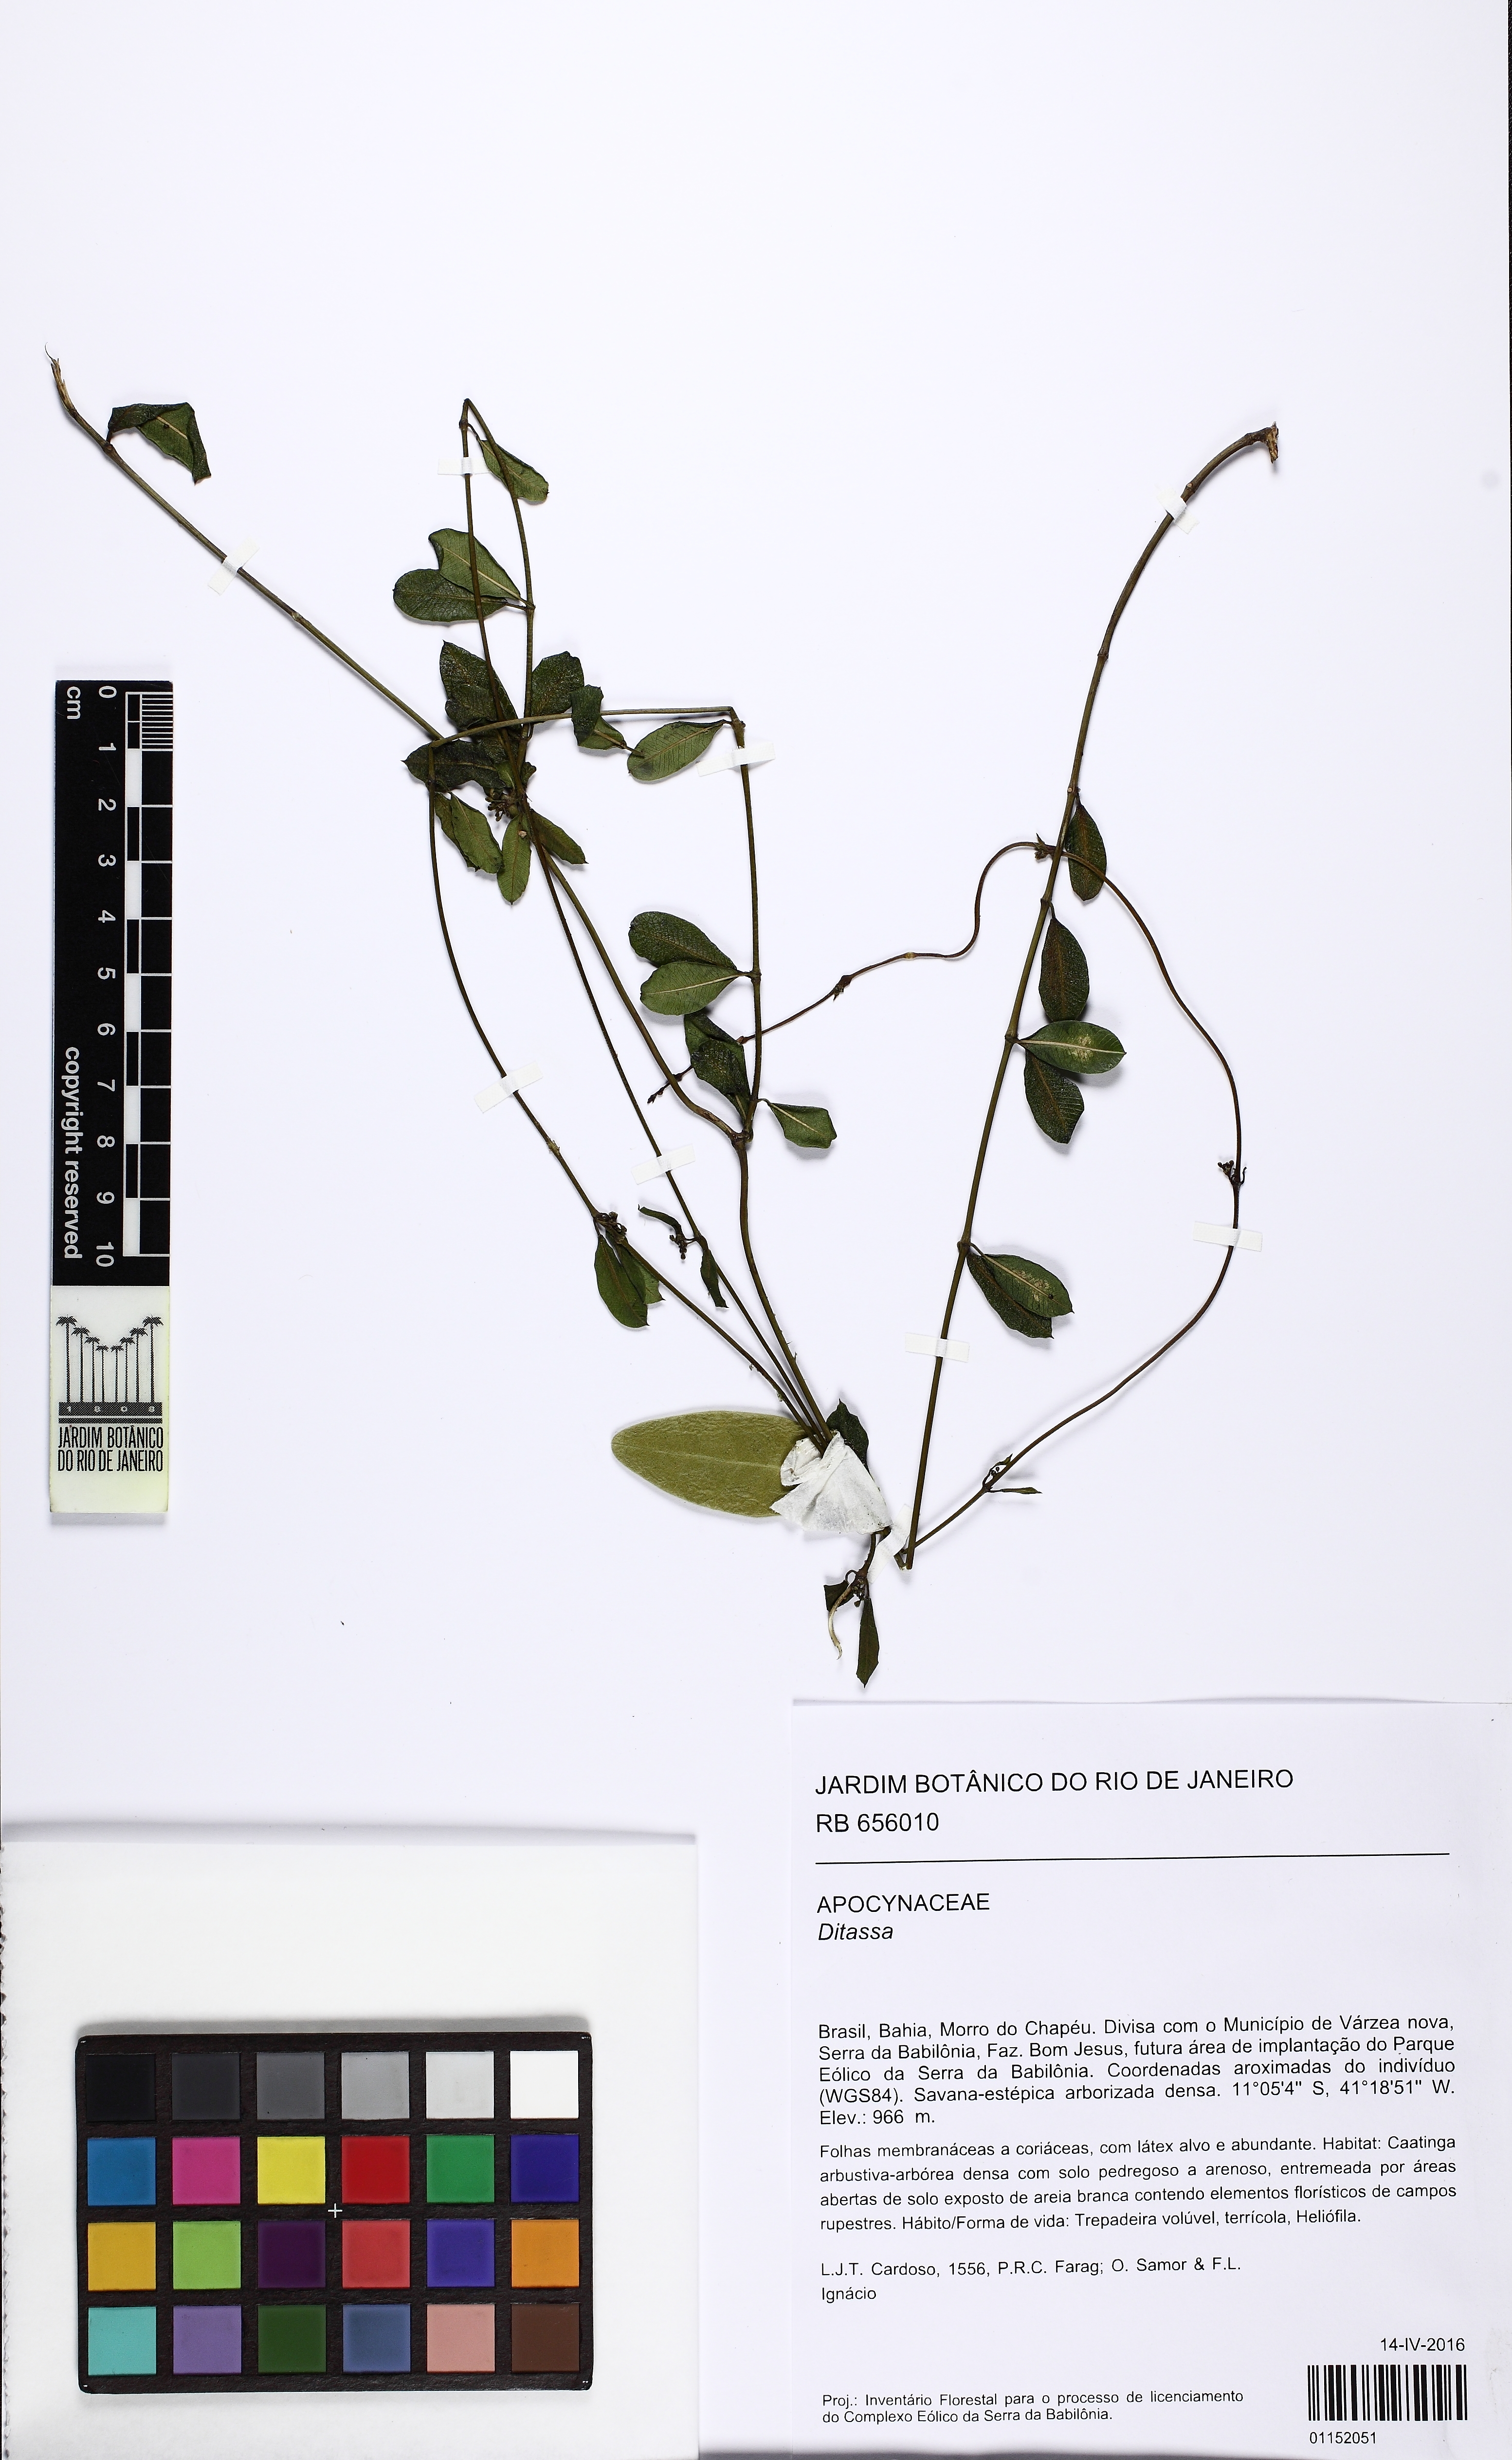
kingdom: Plantae
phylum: Tracheophyta
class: Magnoliopsida
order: Gentianales
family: Apocynaceae
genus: Ditassa
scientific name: Ditassa
